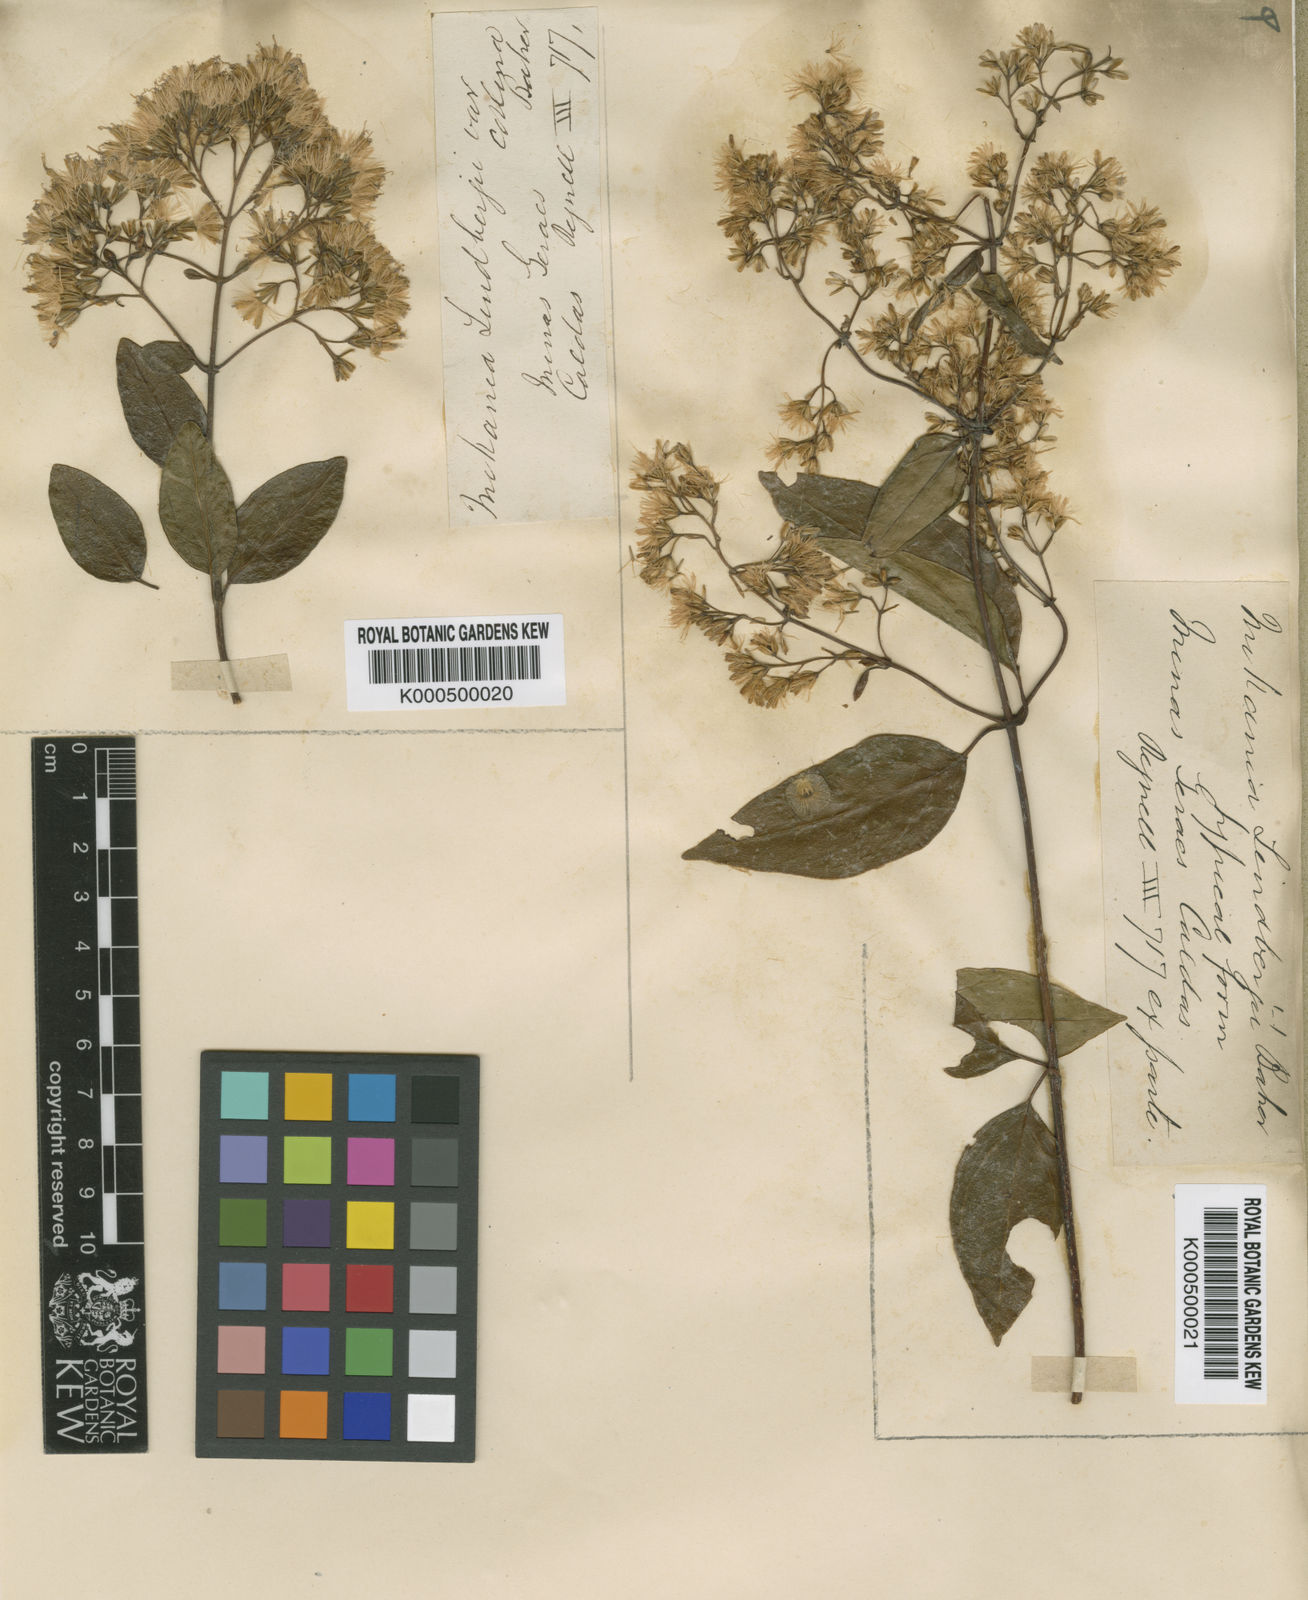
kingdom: Plantae
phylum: Tracheophyta
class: Magnoliopsida
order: Asterales
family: Asteraceae
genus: Mikania
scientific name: Mikania lindbergii
